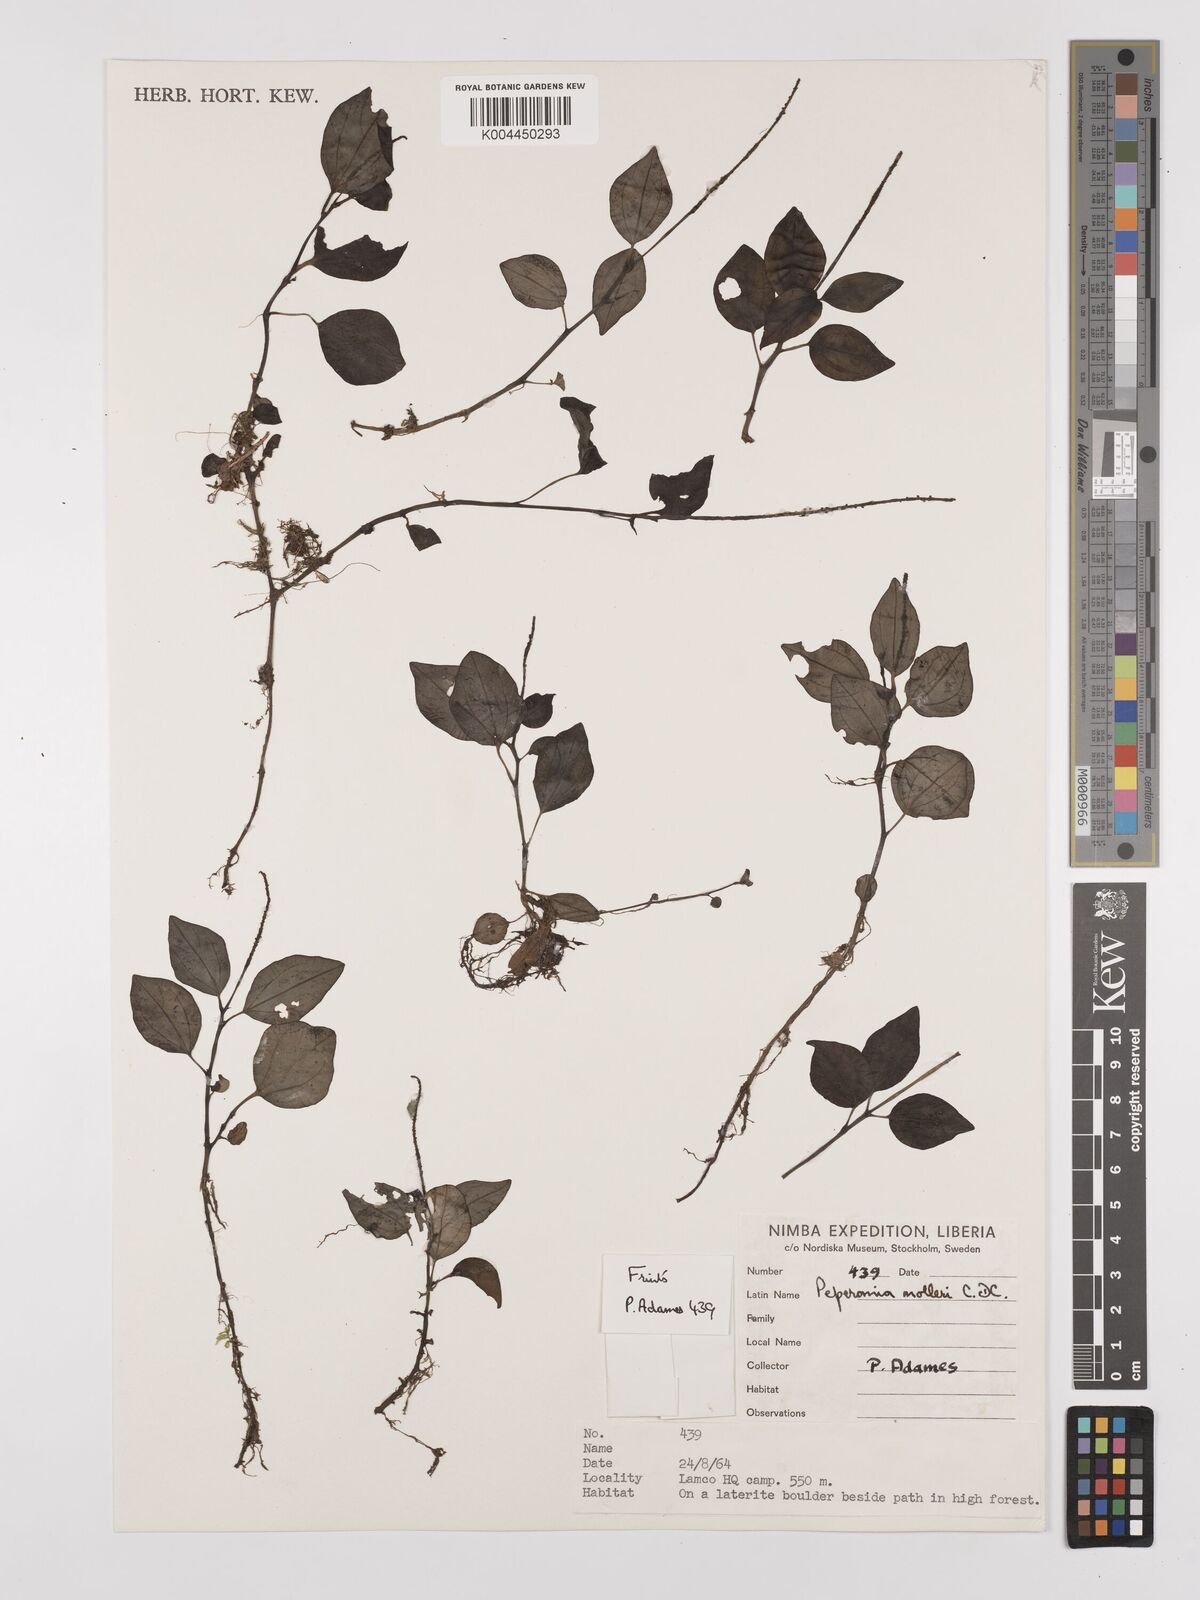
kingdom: Plantae
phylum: Tracheophyta
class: Magnoliopsida
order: Piperales
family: Piperaceae
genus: Peperomia
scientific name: Peperomia molleri
